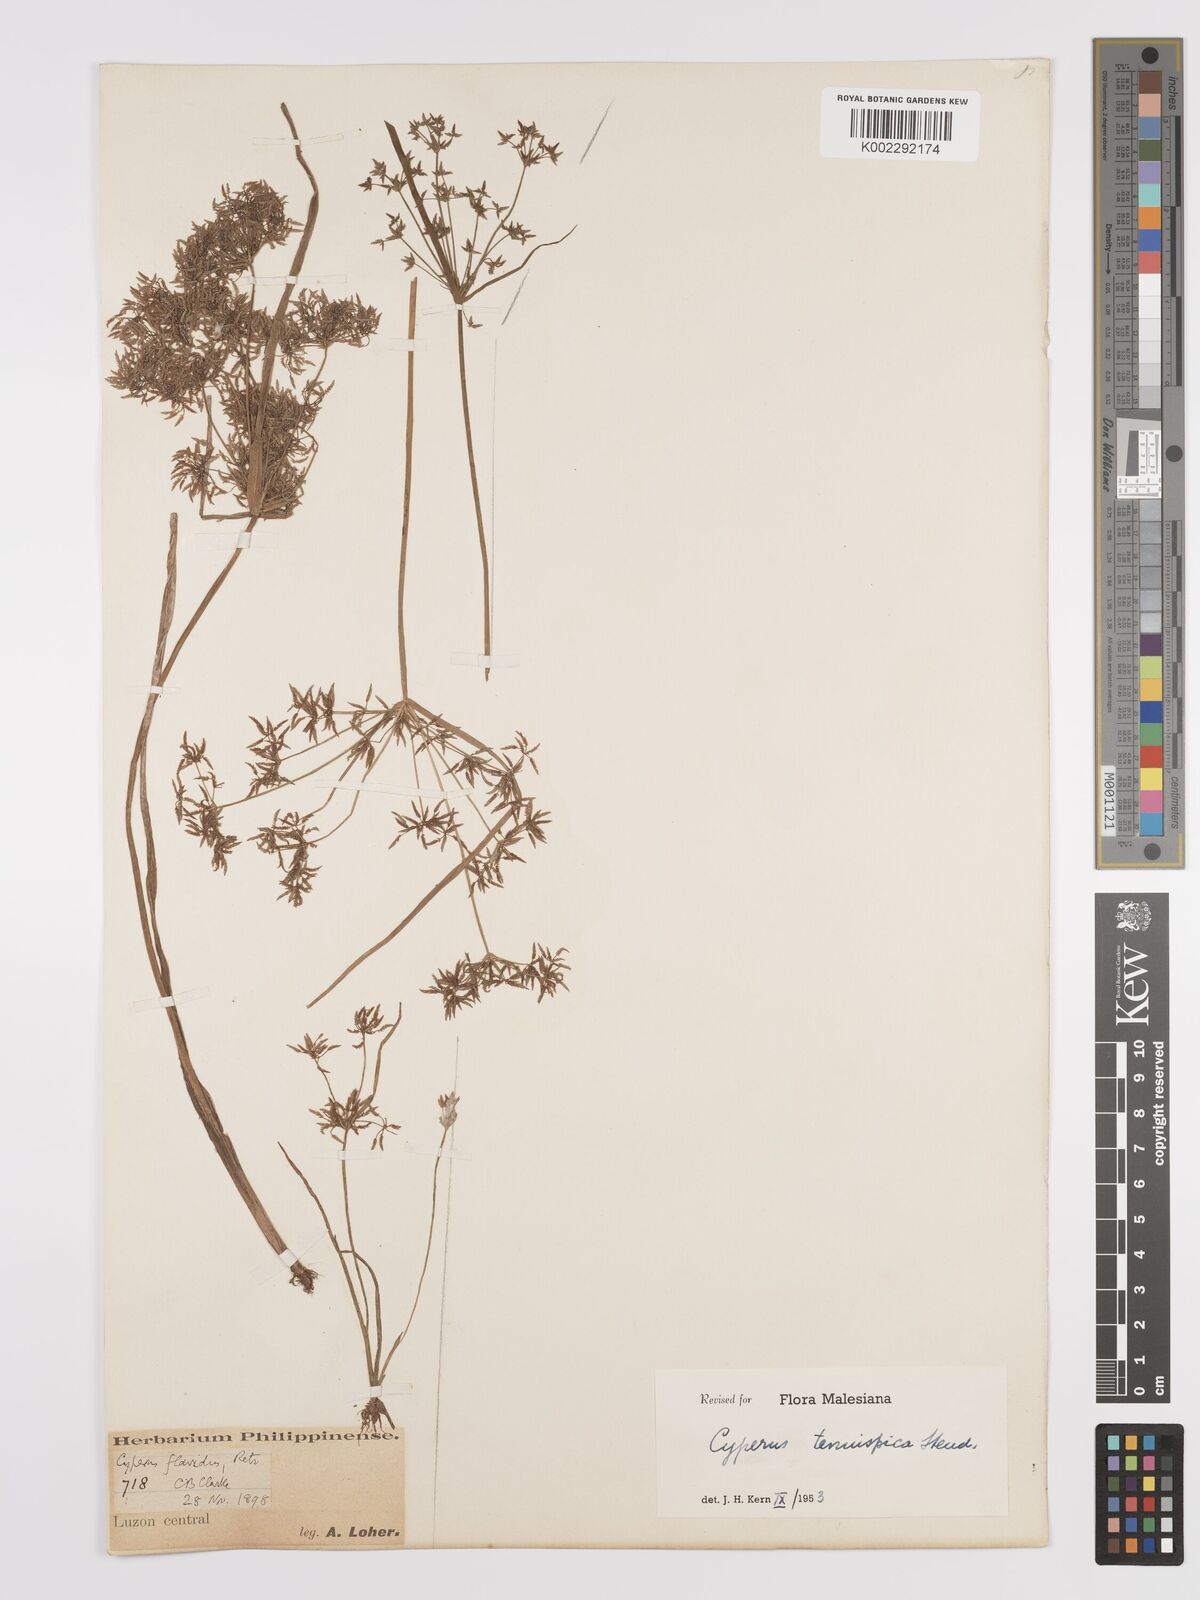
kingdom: Plantae
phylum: Tracheophyta
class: Liliopsida
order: Poales
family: Cyperaceae
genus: Cyperus
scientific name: Cyperus tenuispica
